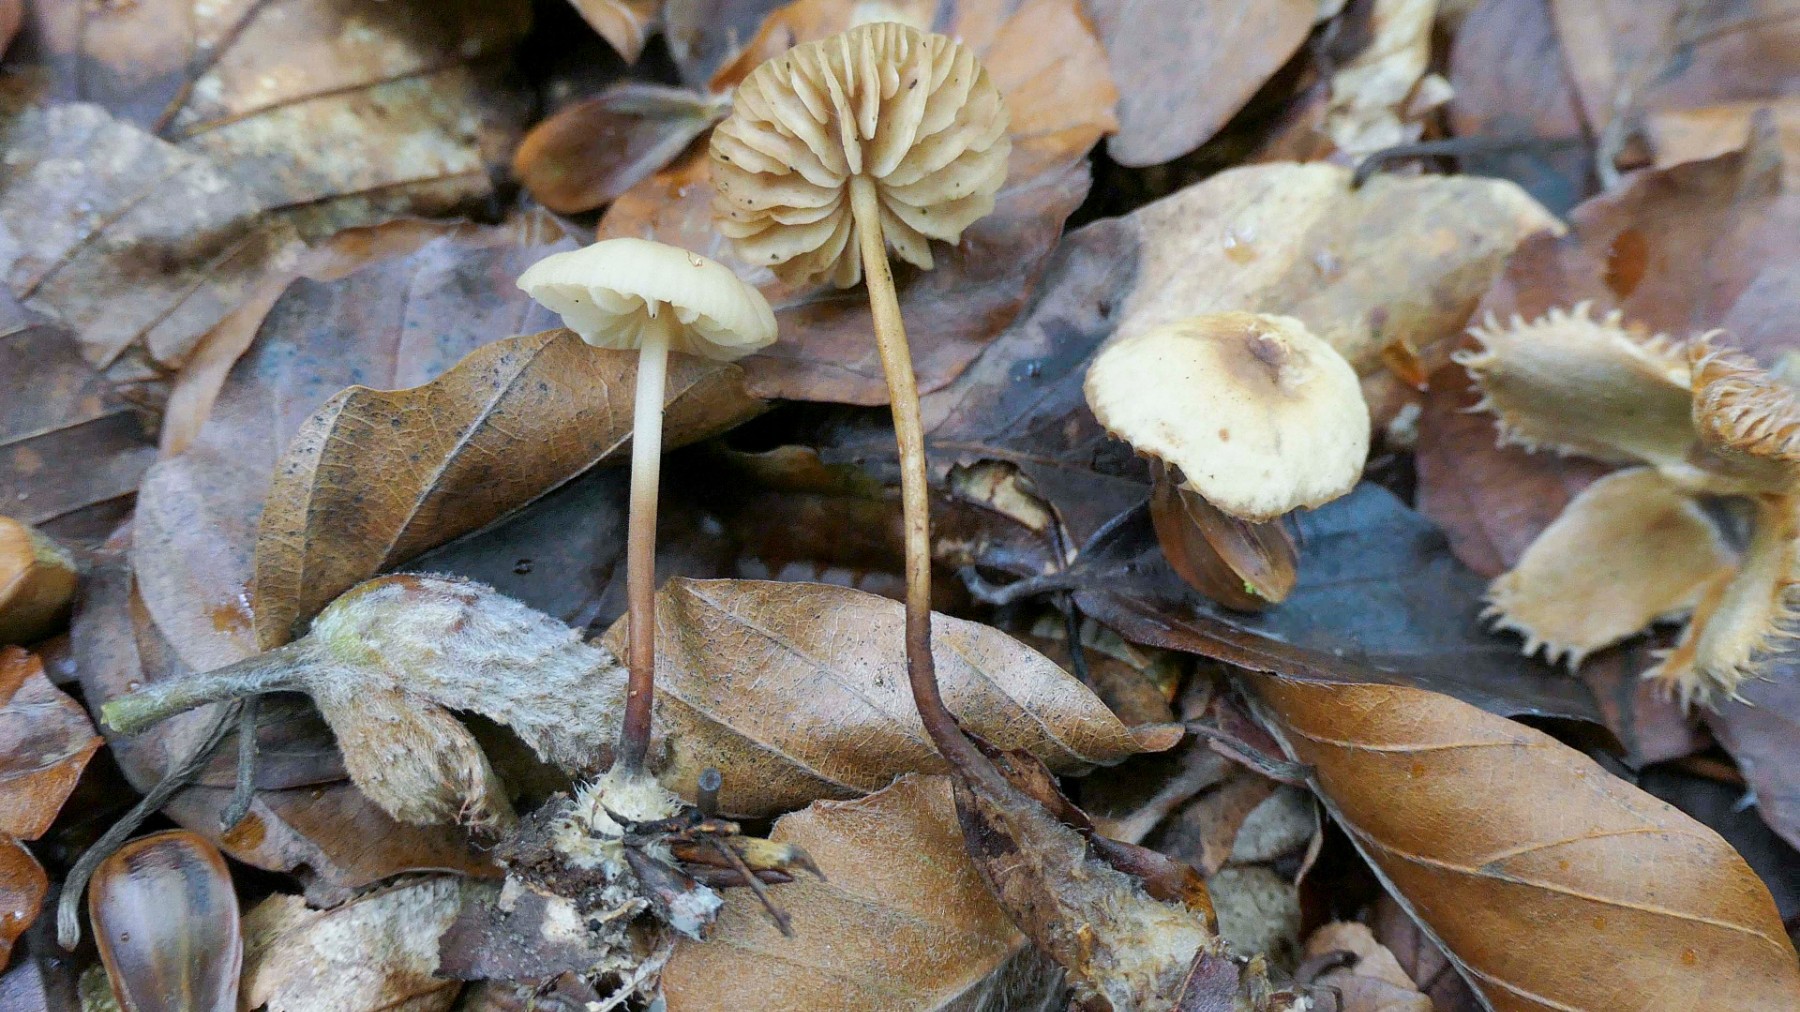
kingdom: Fungi
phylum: Basidiomycota
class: Agaricomycetes
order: Agaricales
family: Marasmiaceae
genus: Marasmius
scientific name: Marasmius torquescens
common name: filtfodet bruskhat
